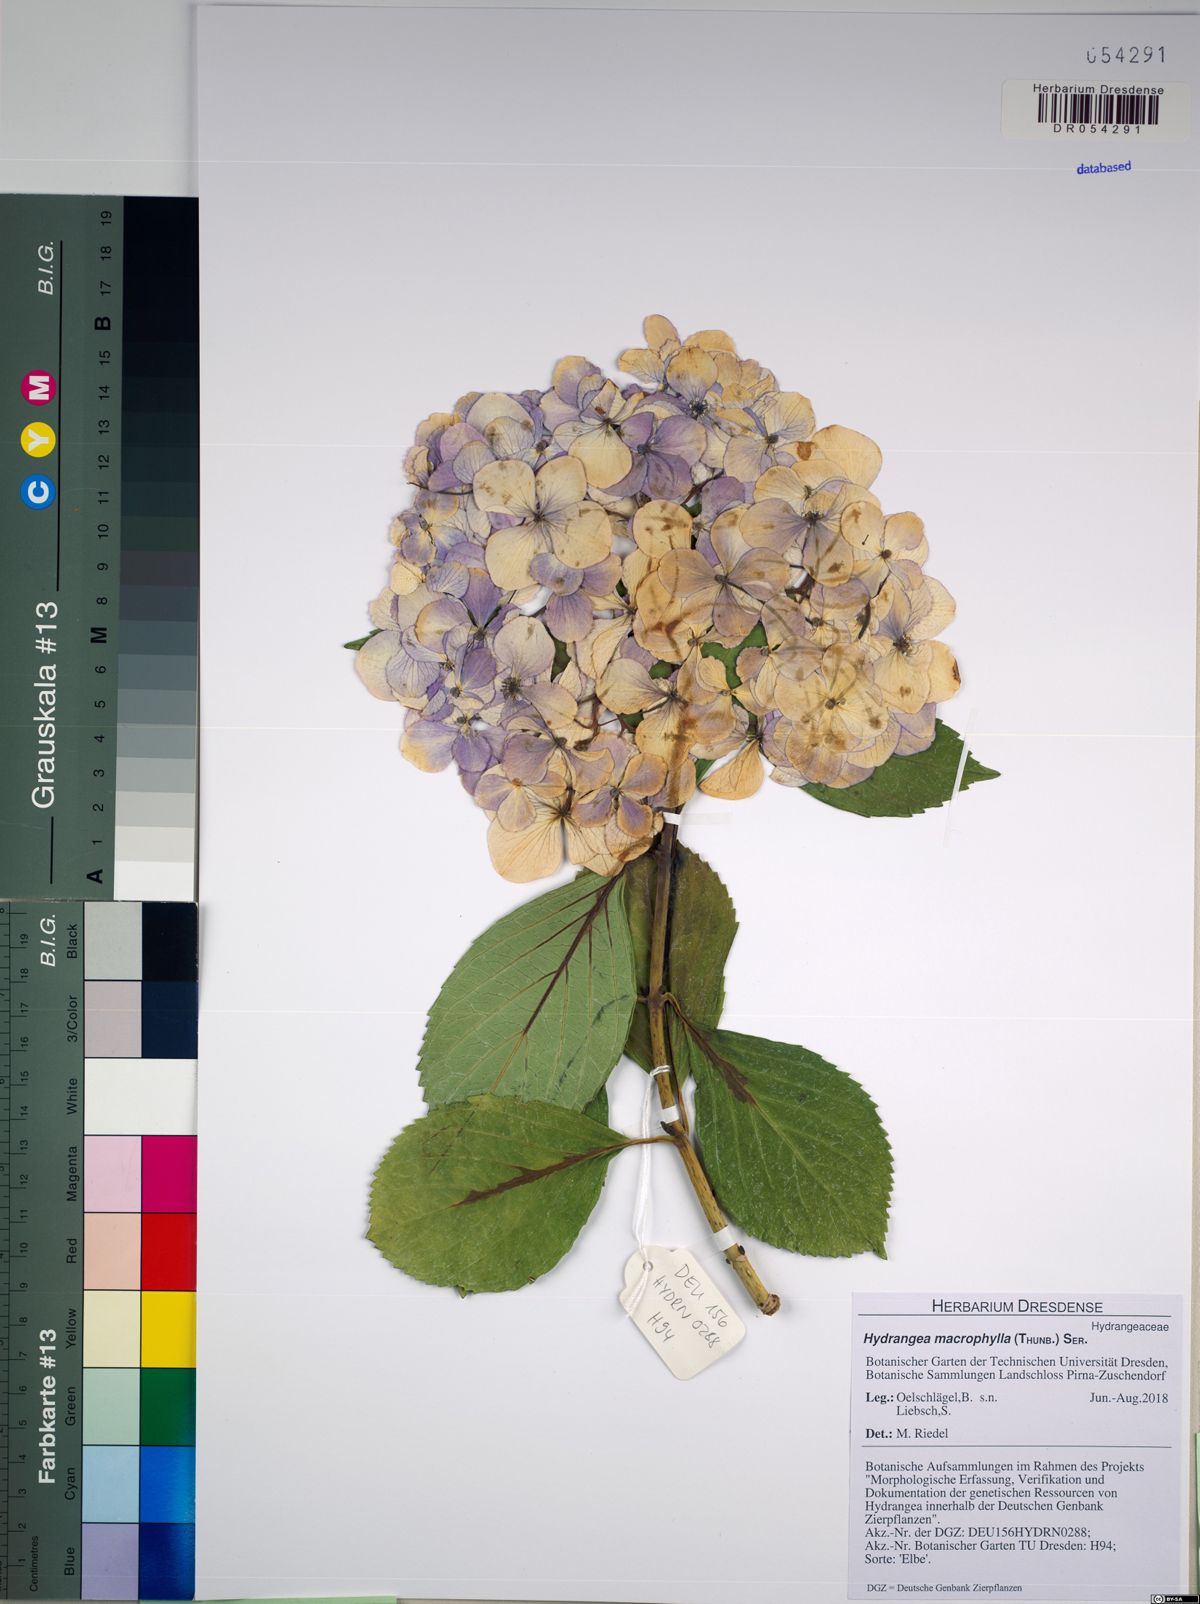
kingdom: Plantae
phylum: Tracheophyta
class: Magnoliopsida
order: Cornales
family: Hydrangeaceae
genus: Hydrangea
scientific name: Hydrangea macrophylla
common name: Hydrangea
